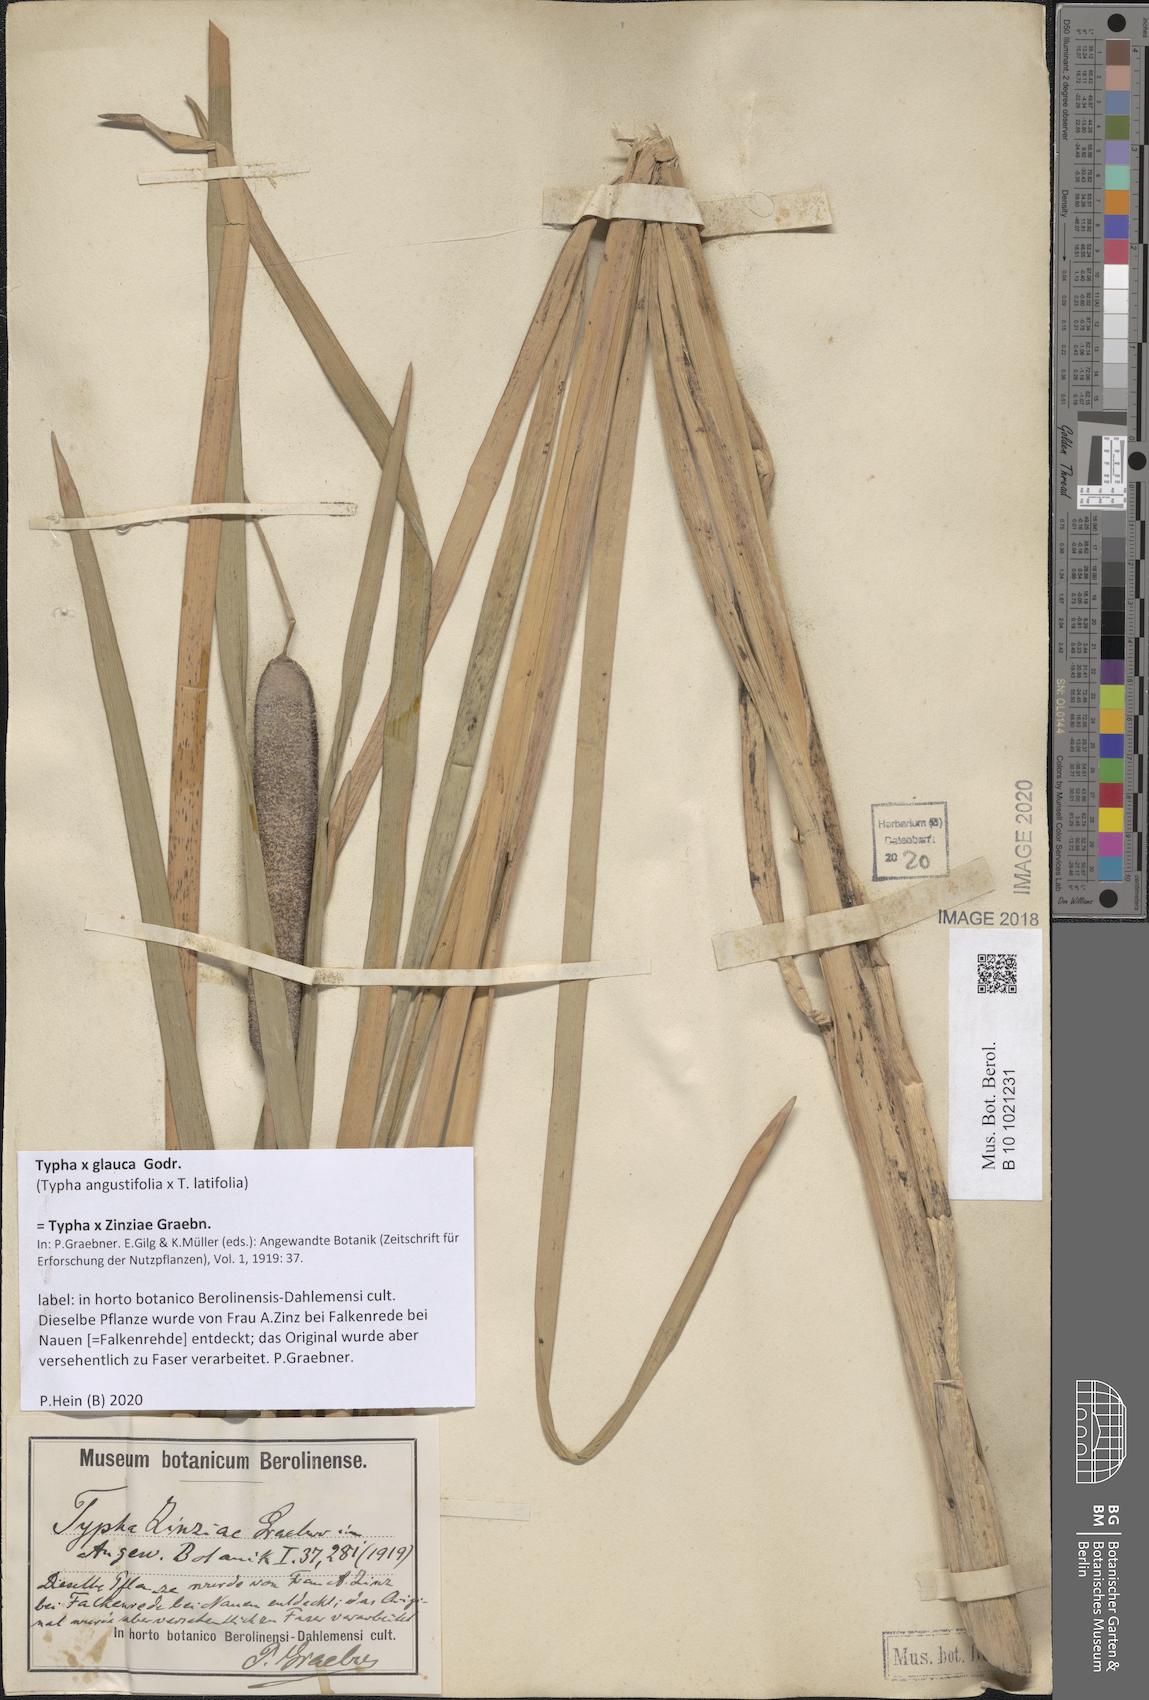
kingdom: Plantae
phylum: Tracheophyta
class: Liliopsida
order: Poales
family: Typhaceae
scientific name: Typhaceae
